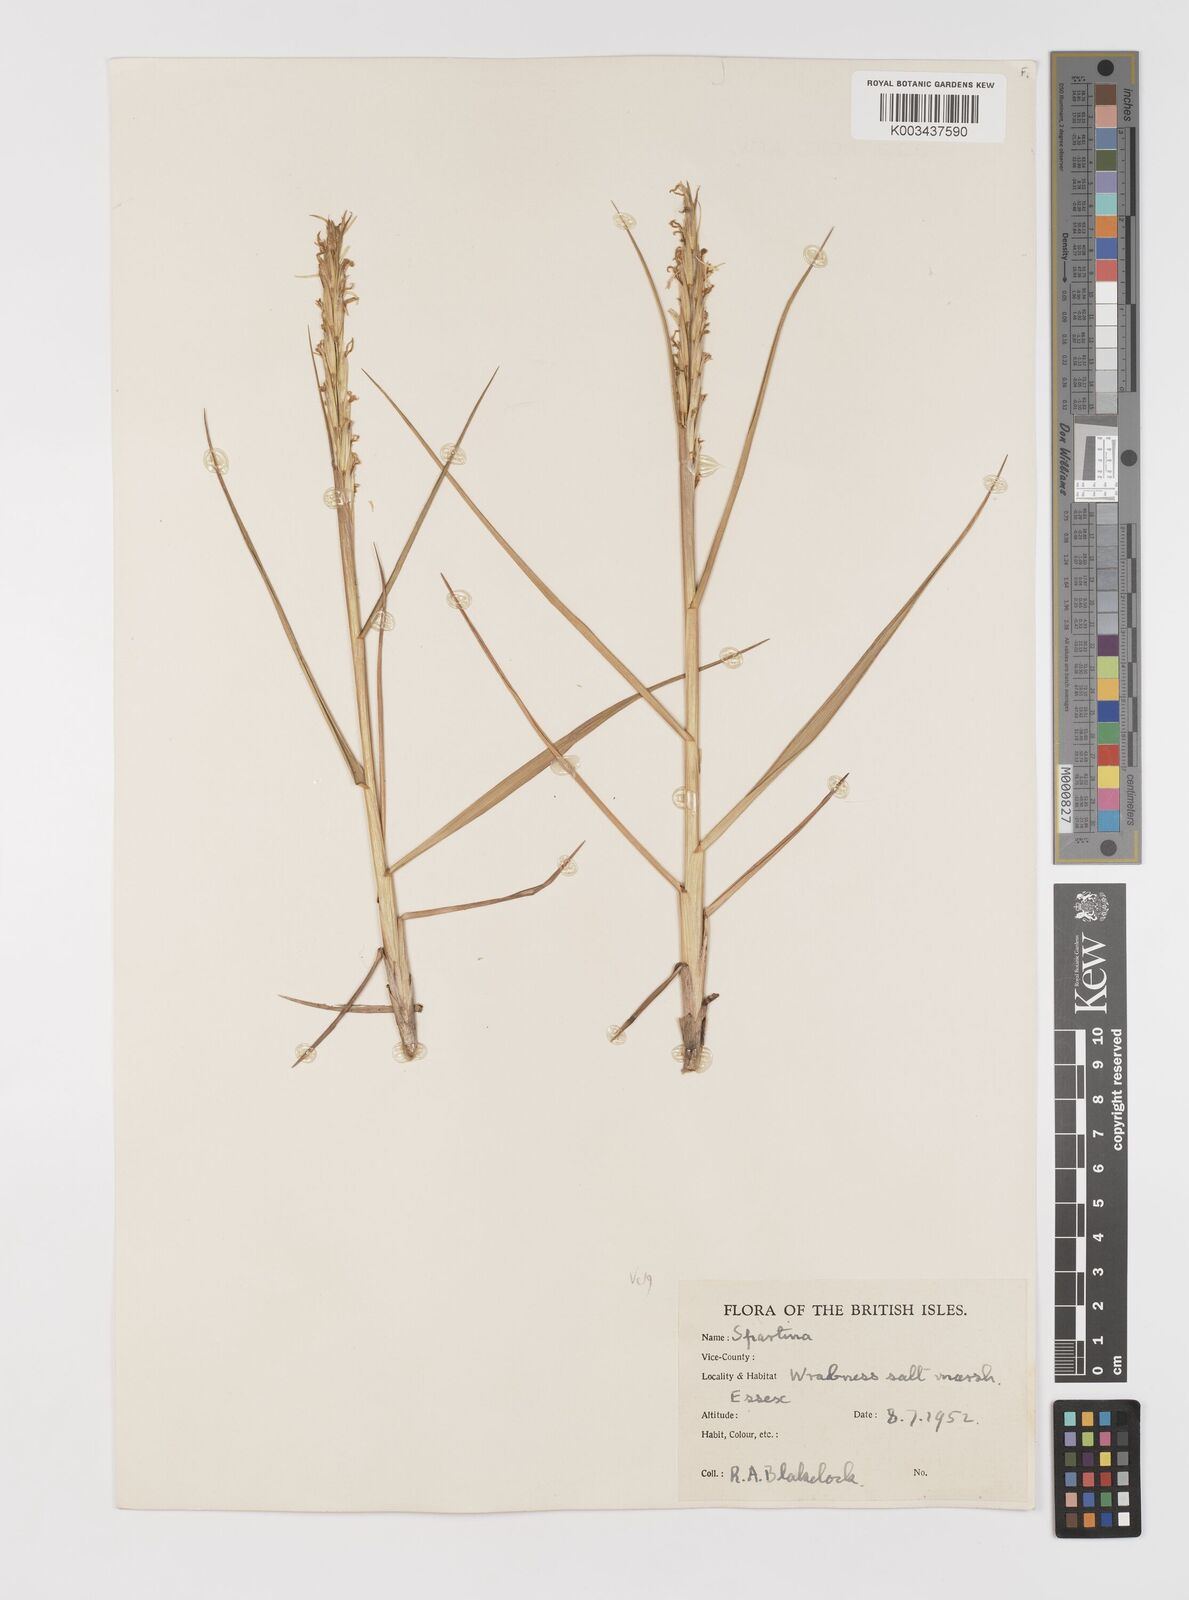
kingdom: Plantae
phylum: Tracheophyta
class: Liliopsida
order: Poales
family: Poaceae
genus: Sporobolus
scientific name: Sporobolus anglicus
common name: English cordgrass
